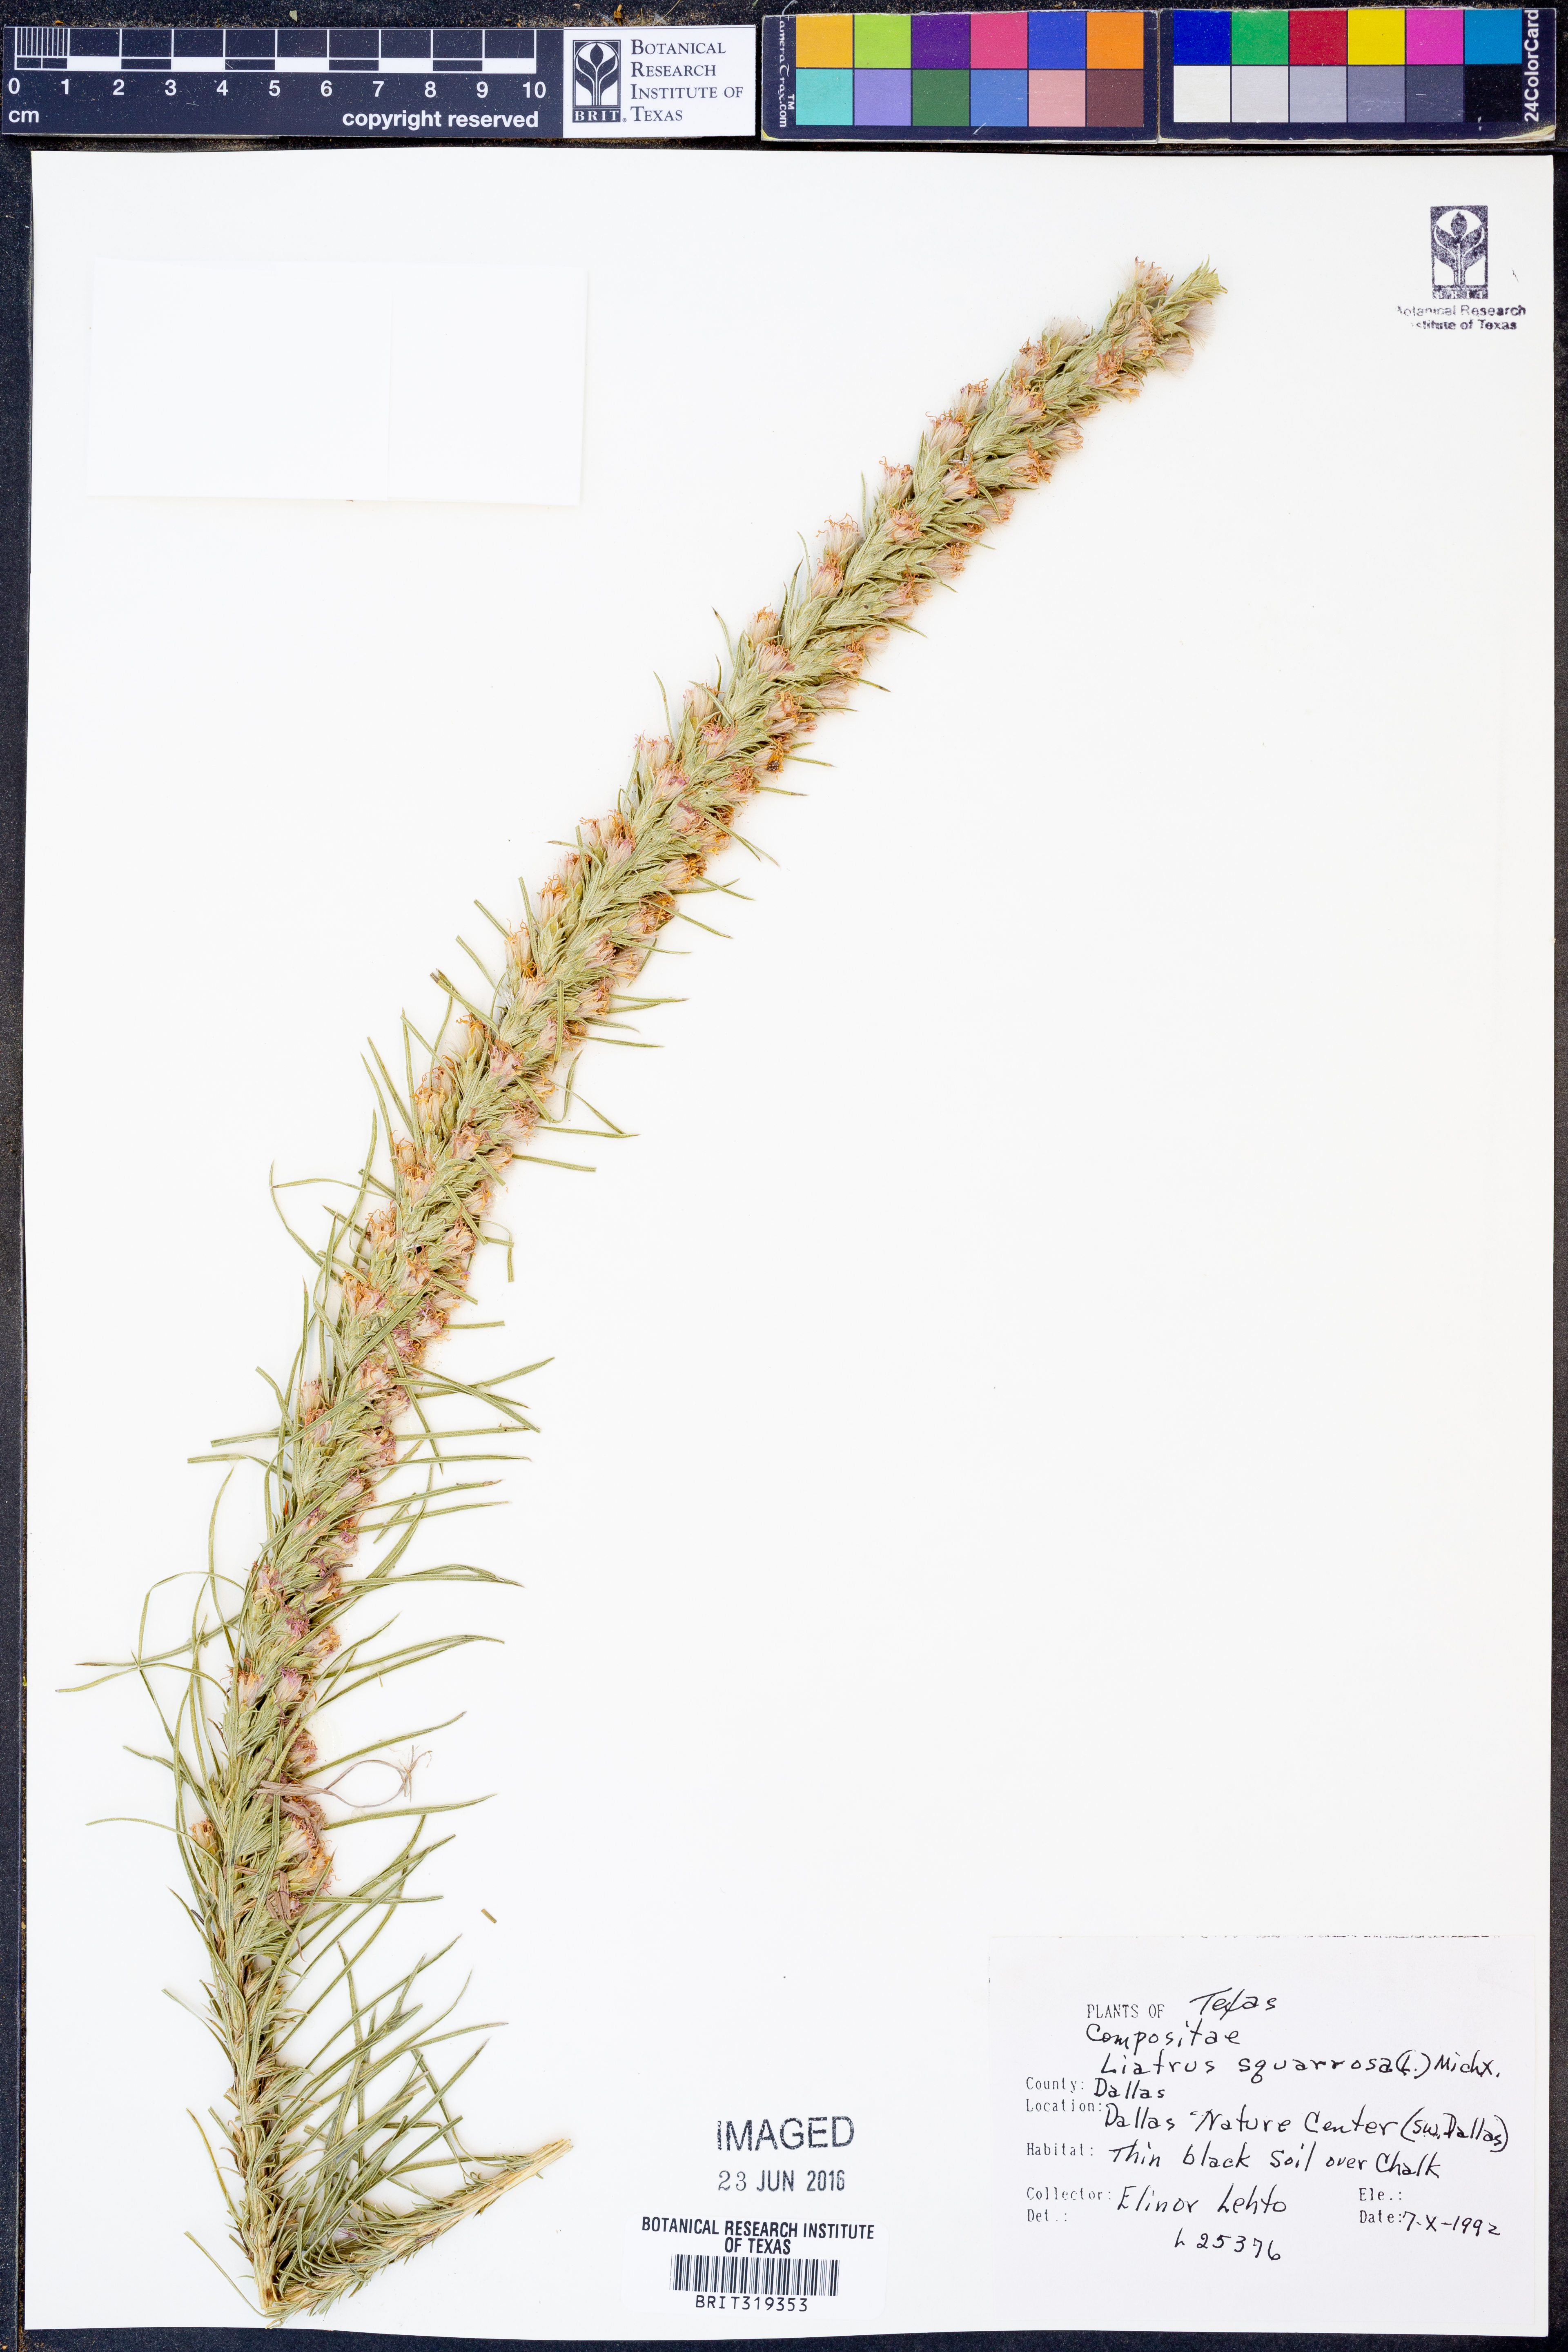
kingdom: Plantae
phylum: Tracheophyta
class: Magnoliopsida
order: Asterales
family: Asteraceae
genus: Liatris
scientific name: Liatris squarrosa
